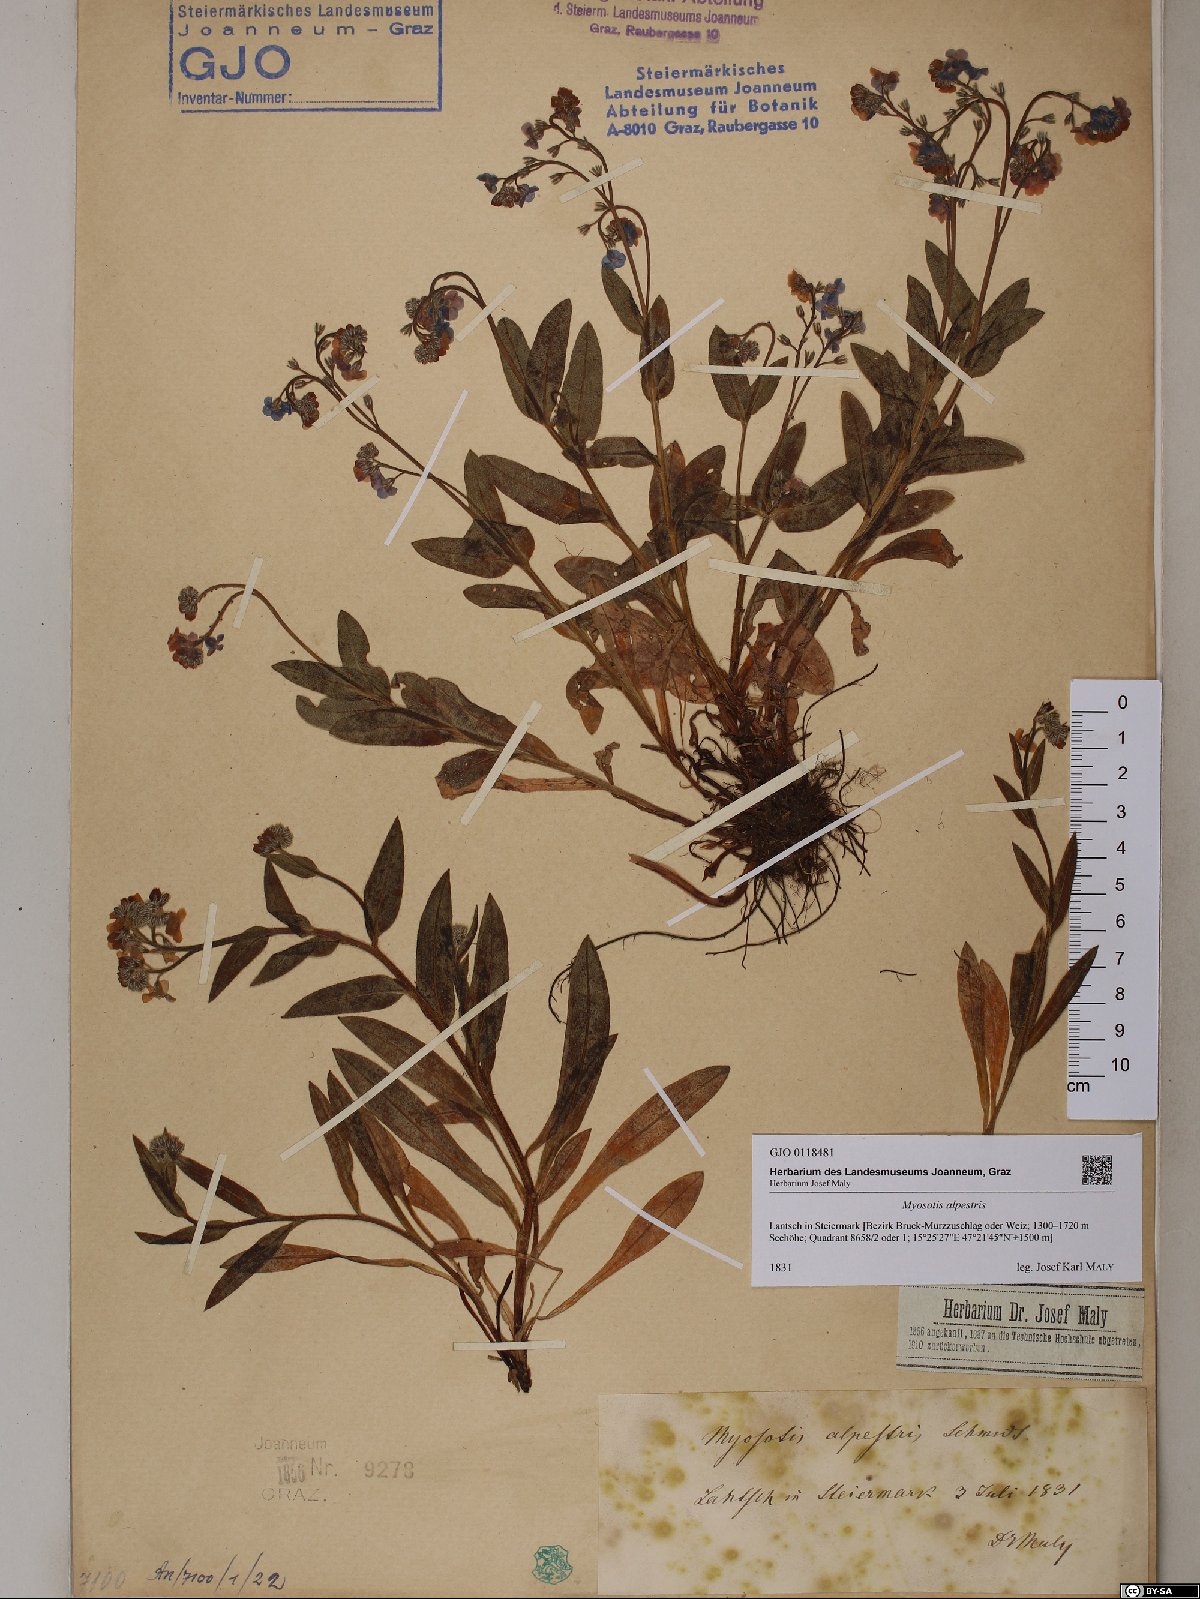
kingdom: Plantae
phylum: Tracheophyta
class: Magnoliopsida
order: Boraginales
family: Boraginaceae
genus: Myosotis
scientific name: Myosotis alpestris
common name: Alpine forget-me-not
